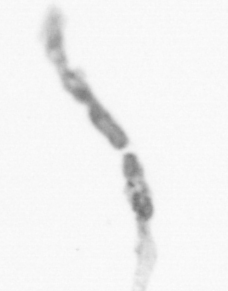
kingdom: Chromista
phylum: Ochrophyta
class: Bacillariophyceae
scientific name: Bacillariophyceae
